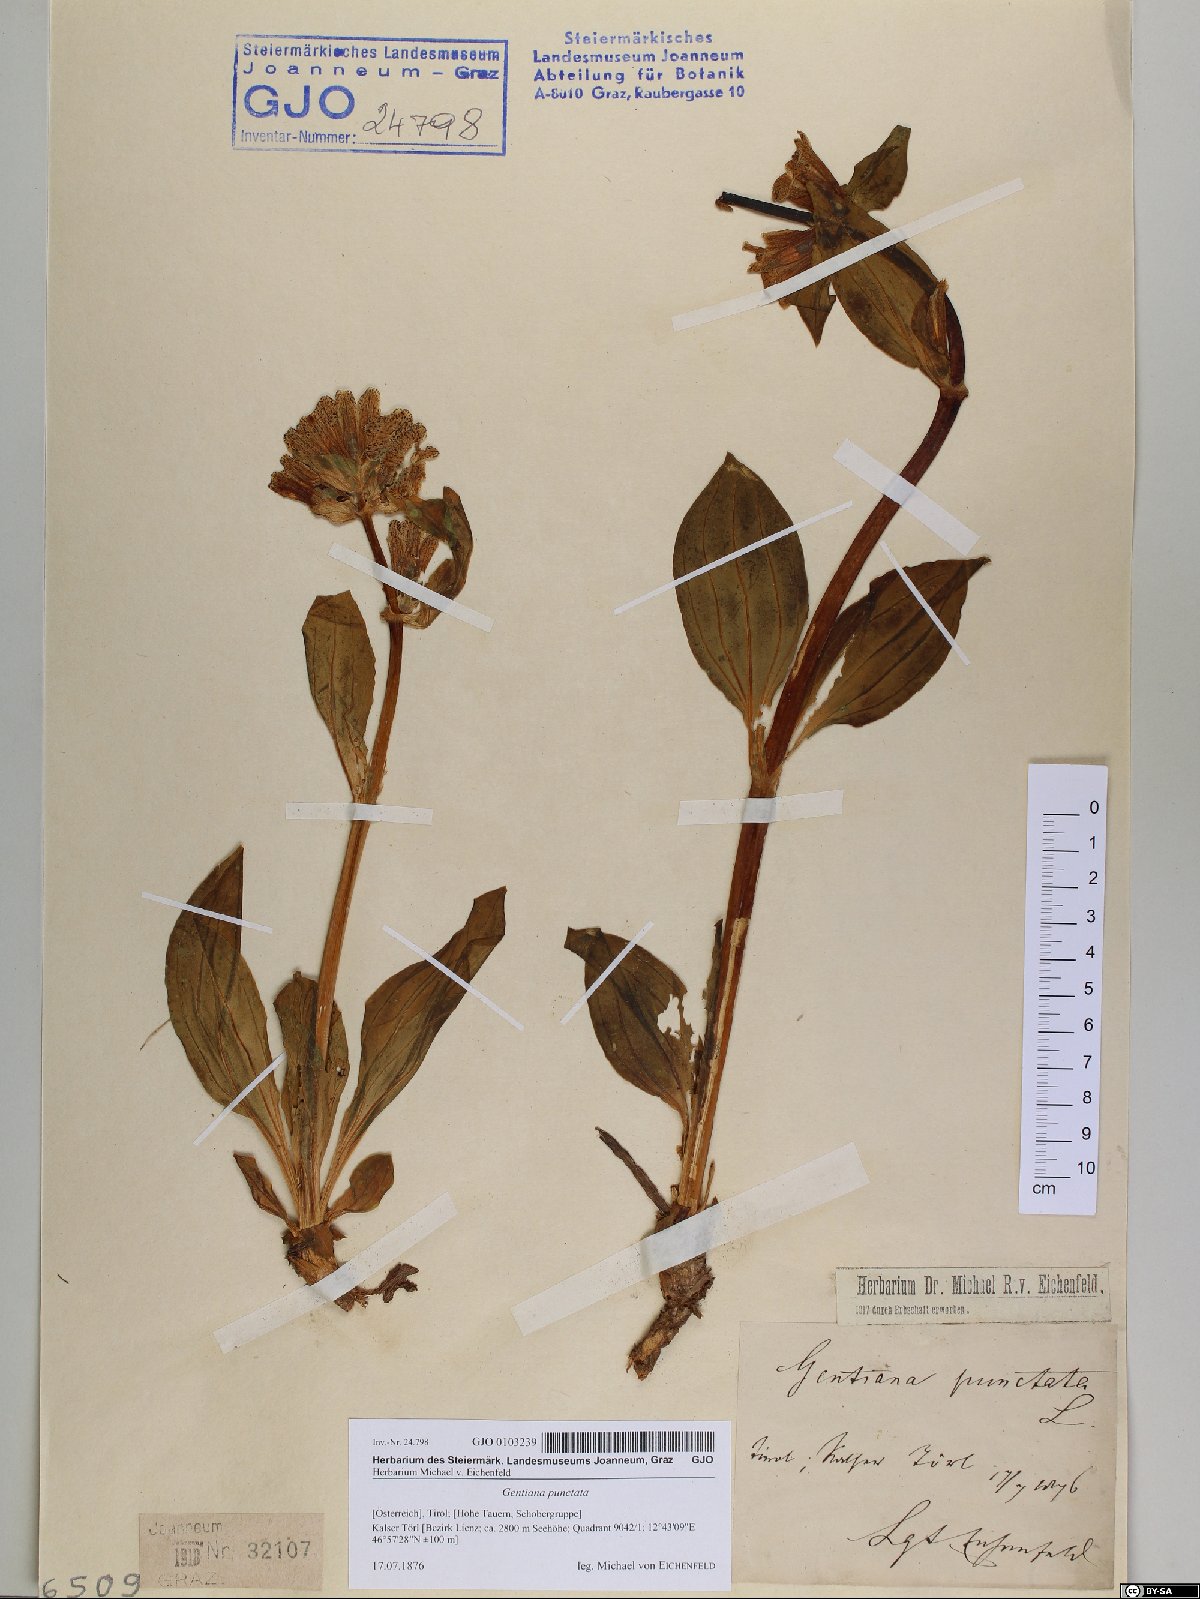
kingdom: Plantae
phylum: Tracheophyta
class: Magnoliopsida
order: Gentianales
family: Gentianaceae
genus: Gentiana
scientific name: Gentiana punctata
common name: Spotted gentian
